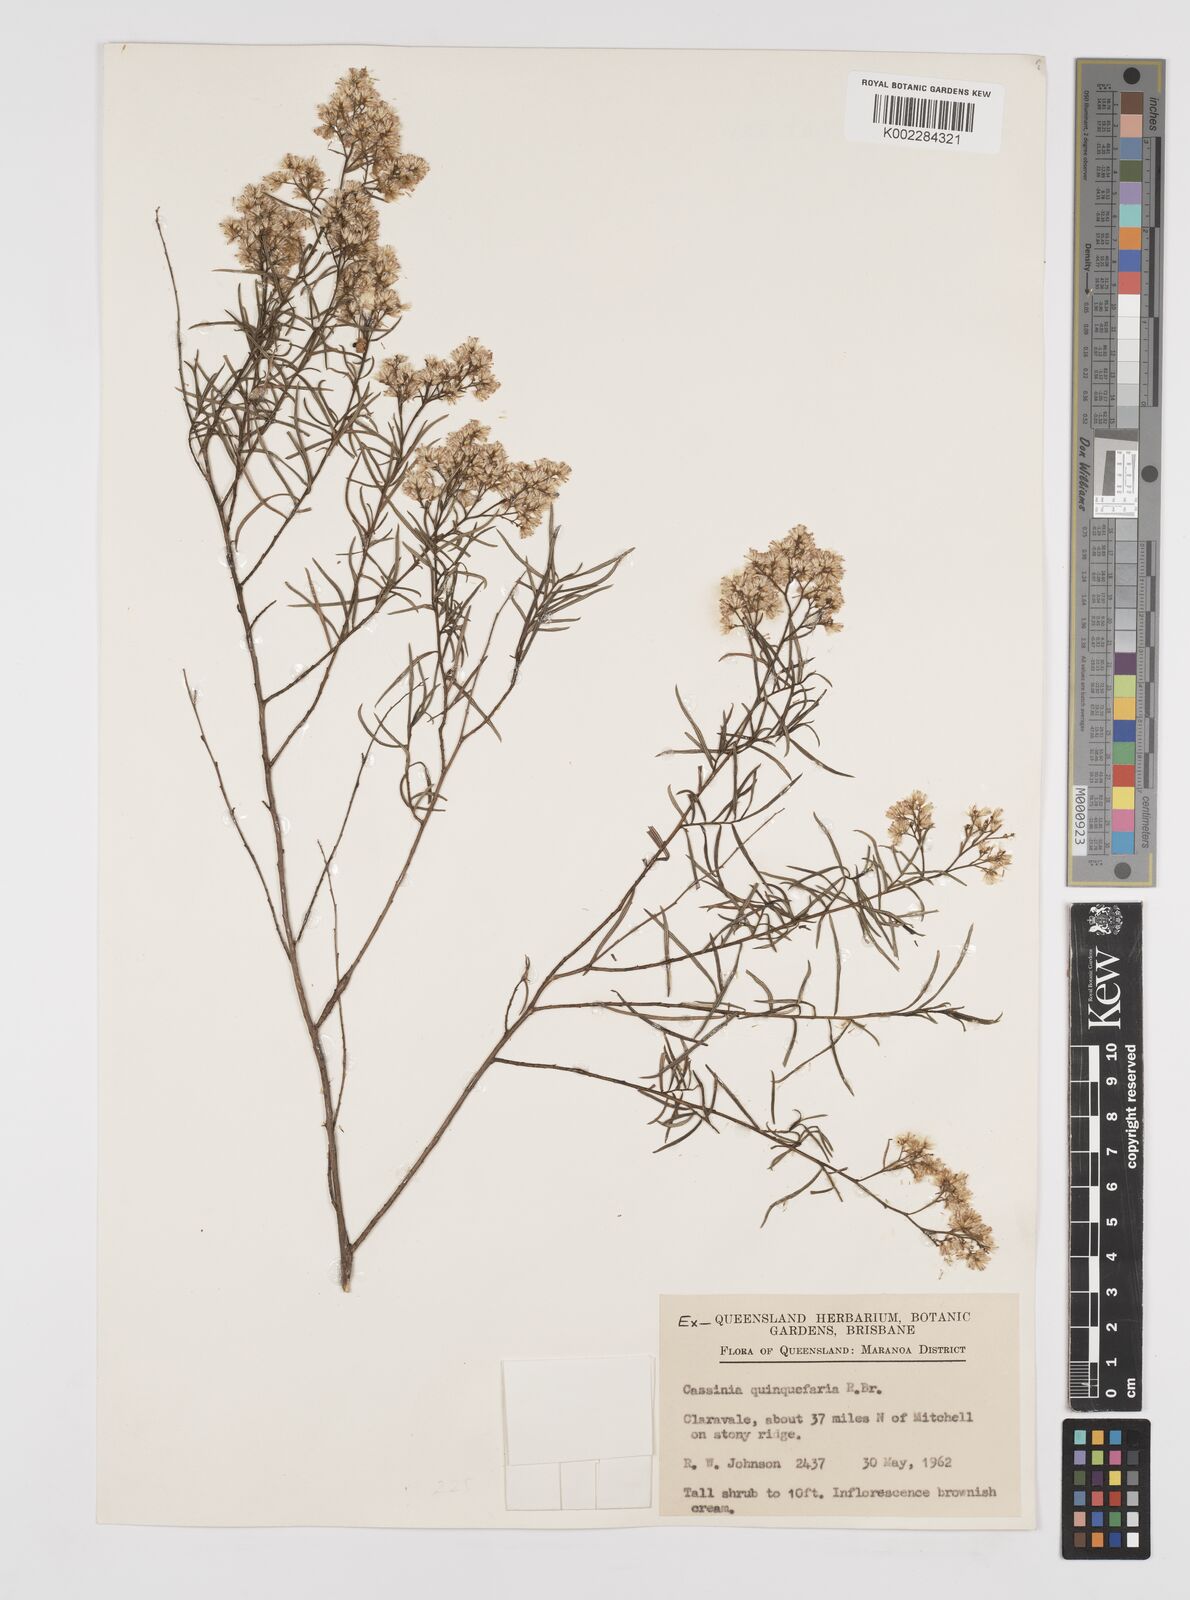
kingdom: Plantae
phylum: Tracheophyta
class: Magnoliopsida
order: Asterales
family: Asteraceae
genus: Cassinia
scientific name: Cassinia quinquefaria
